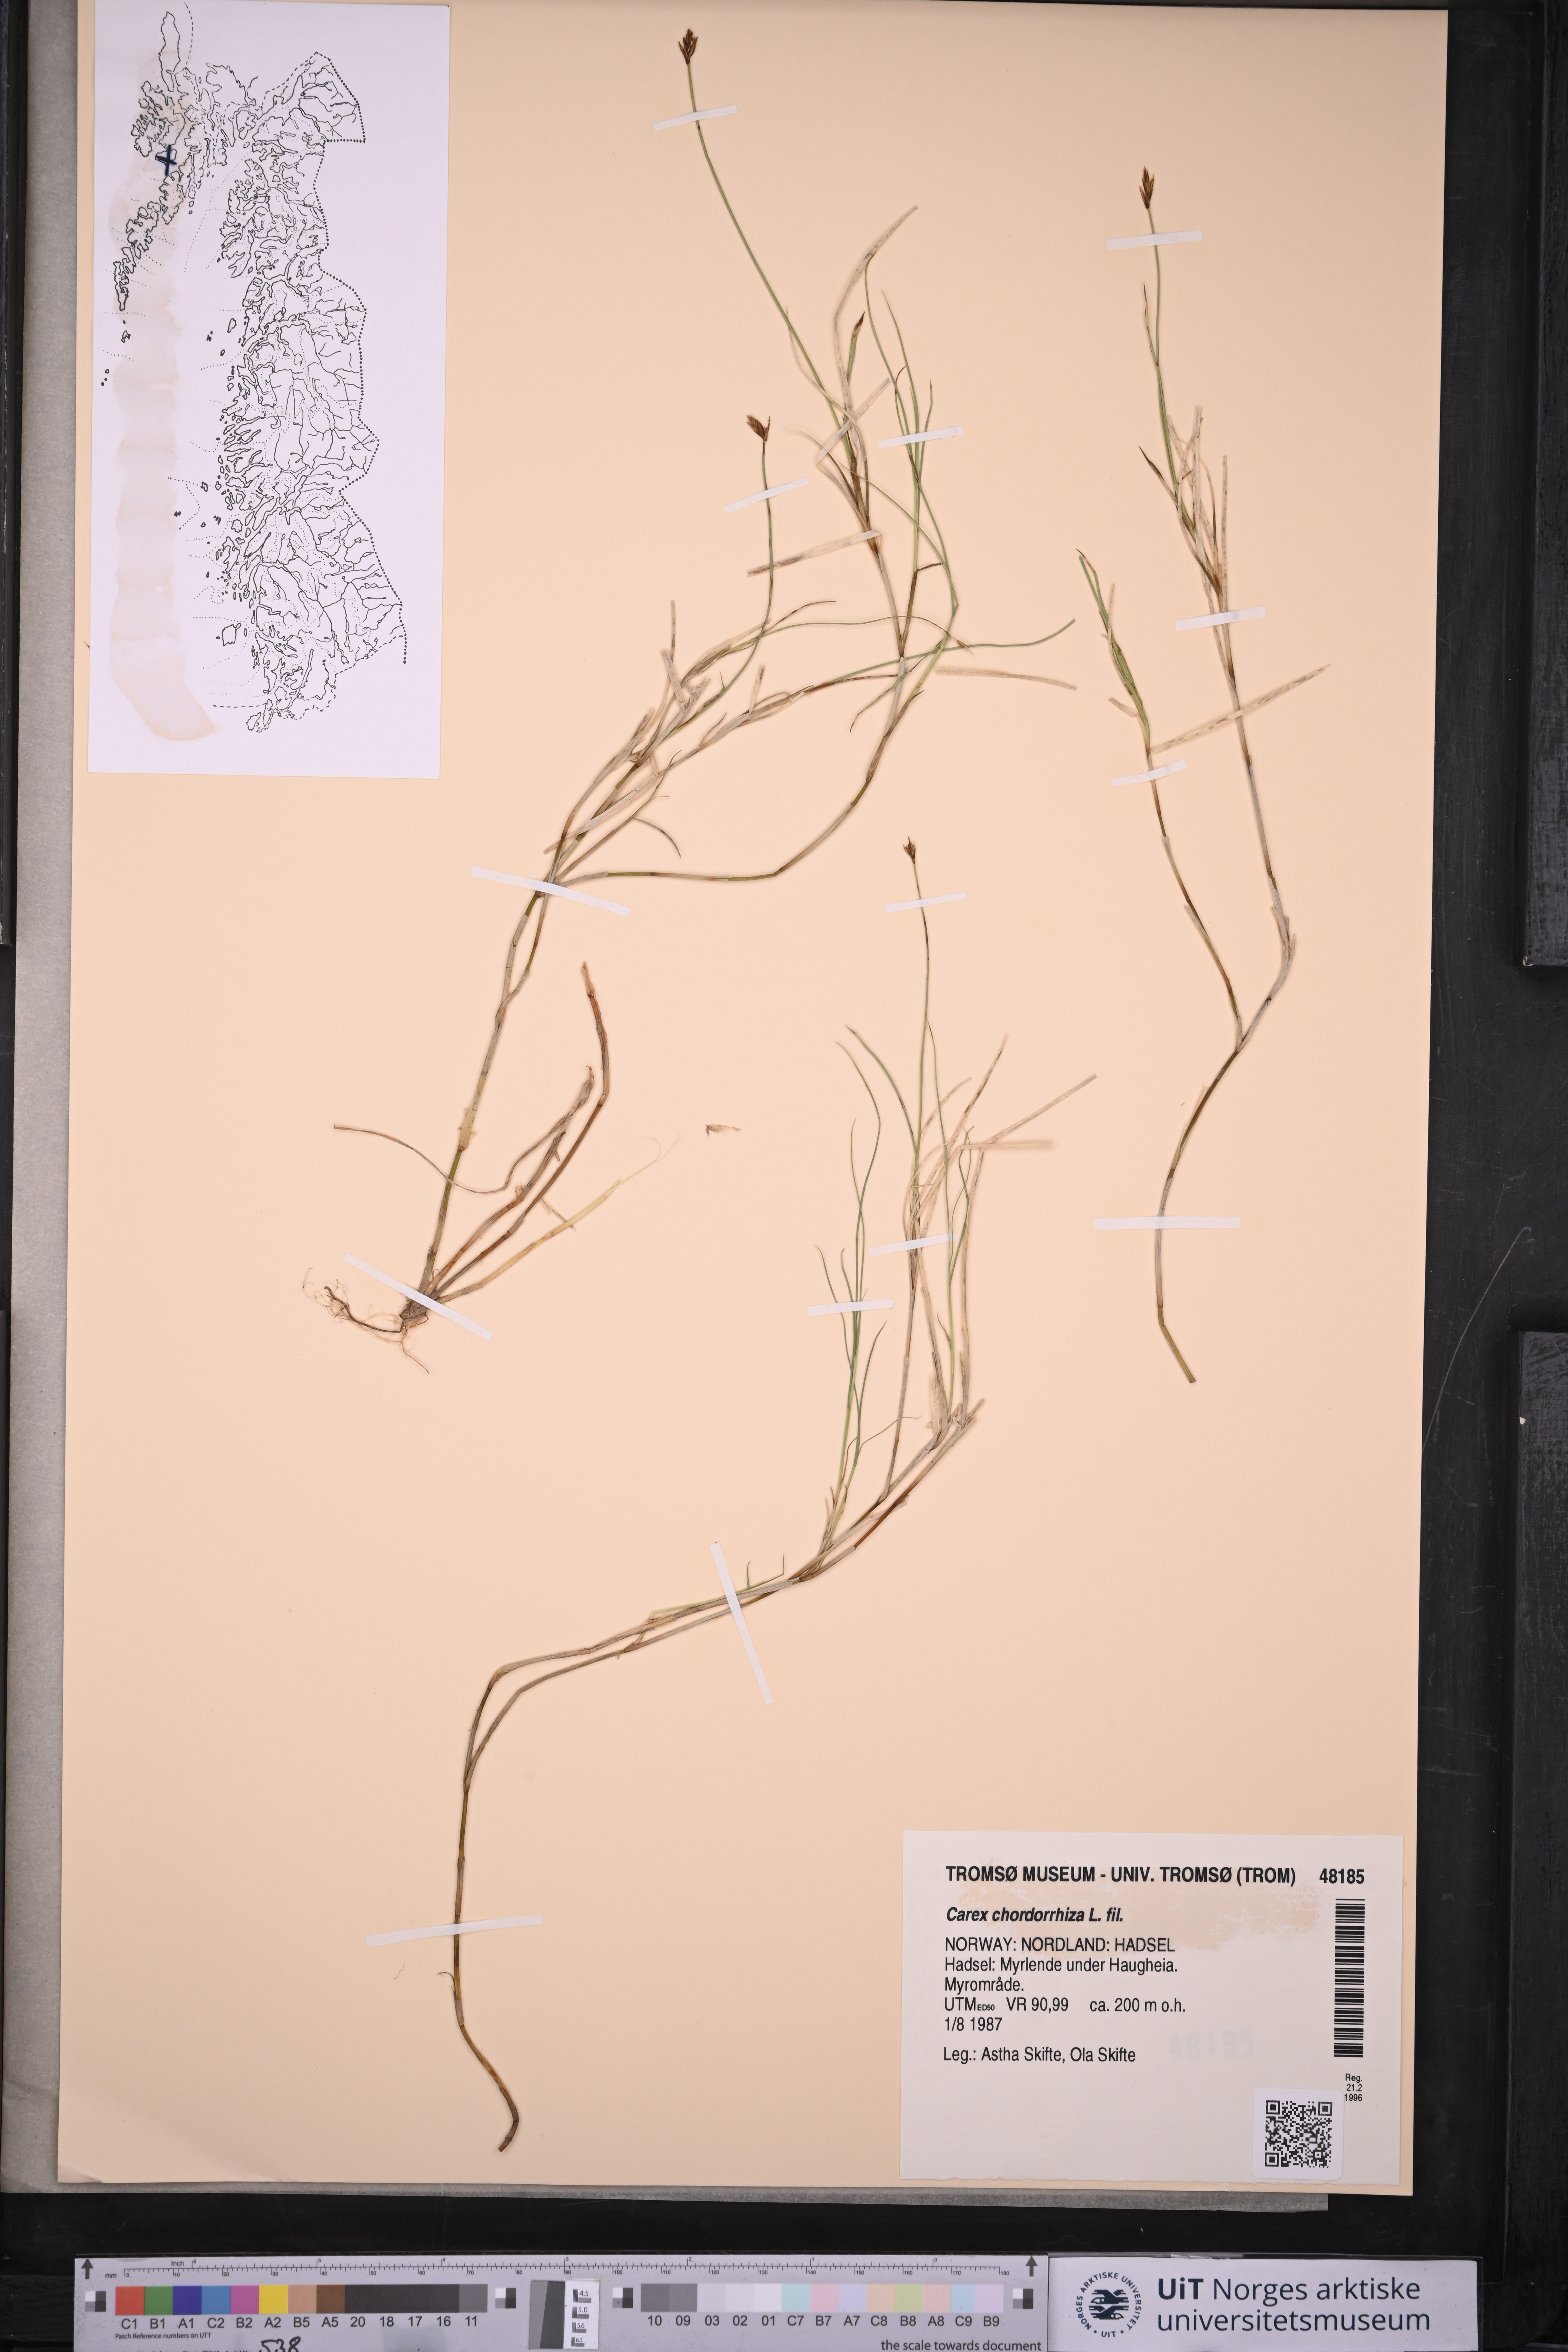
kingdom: Plantae
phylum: Tracheophyta
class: Liliopsida
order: Poales
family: Cyperaceae
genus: Carex
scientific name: Carex chordorrhiza
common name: String sedge
